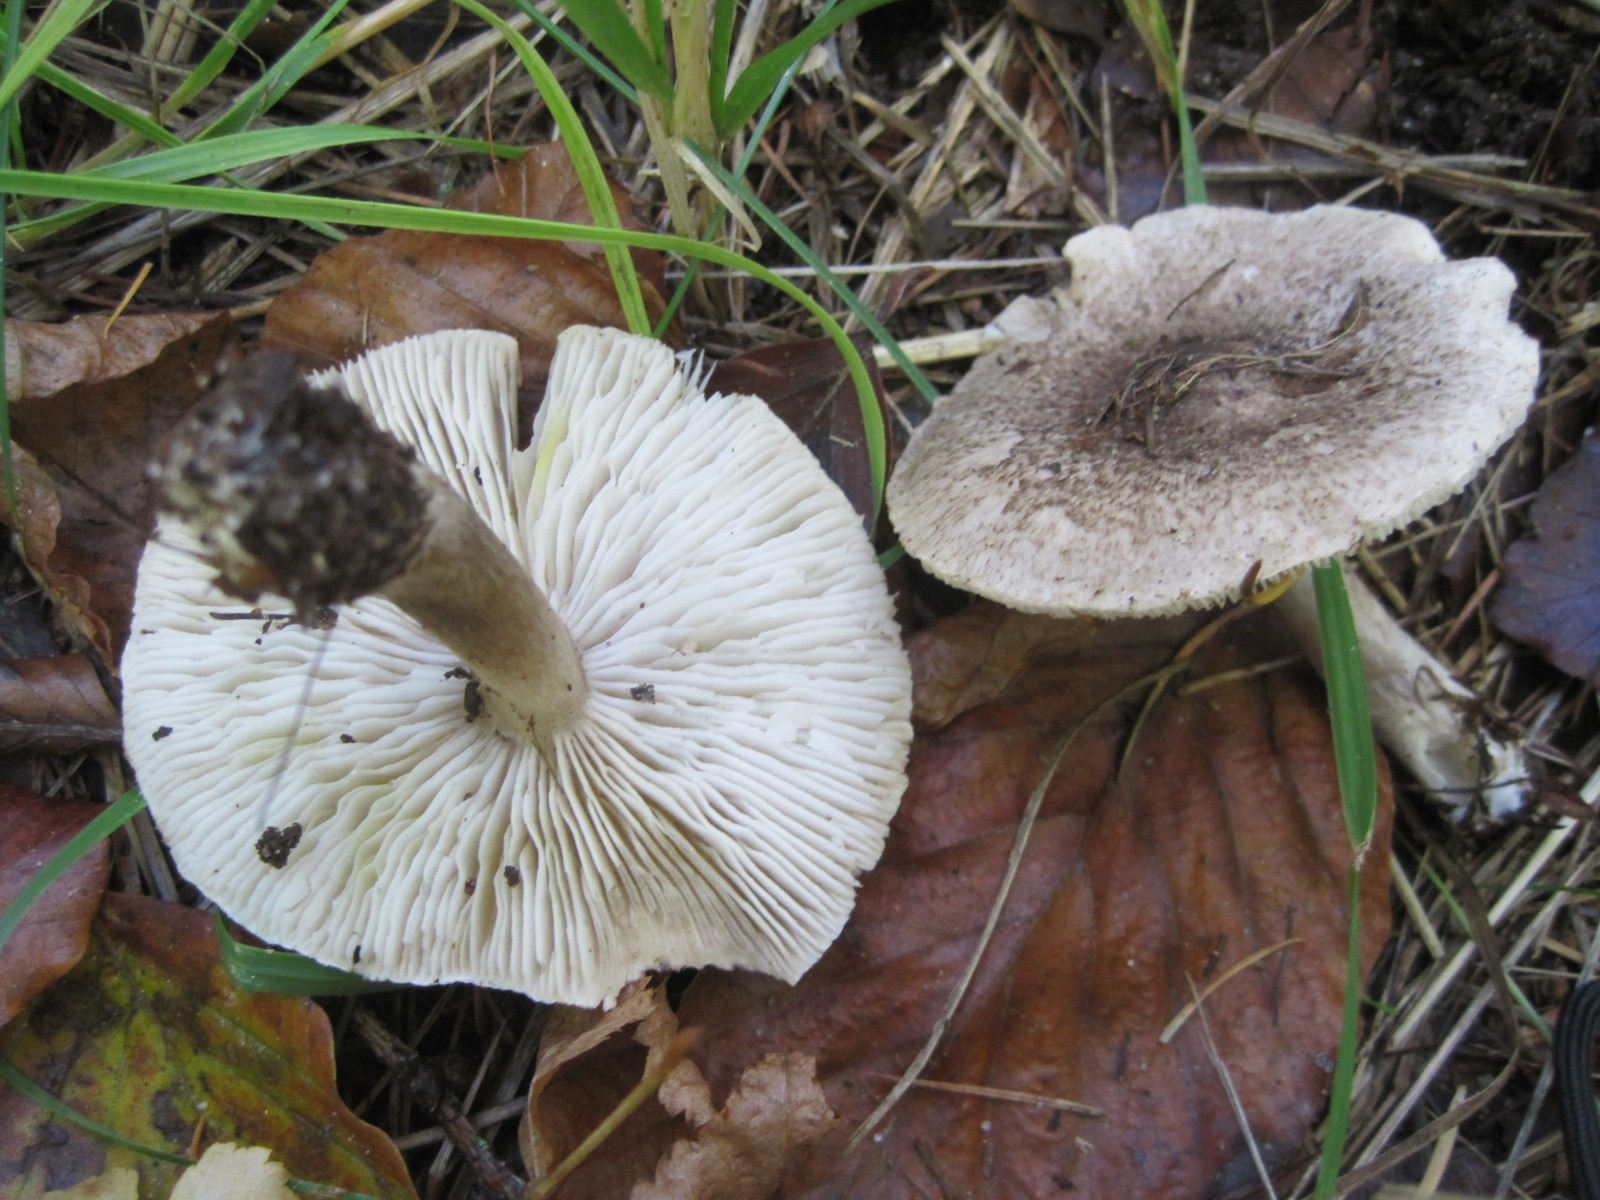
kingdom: Fungi
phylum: Basidiomycota
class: Agaricomycetes
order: Agaricales
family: Tricholomataceae
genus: Tricholoma
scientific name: Tricholoma scalpturatum
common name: gulplettet ridderhat
